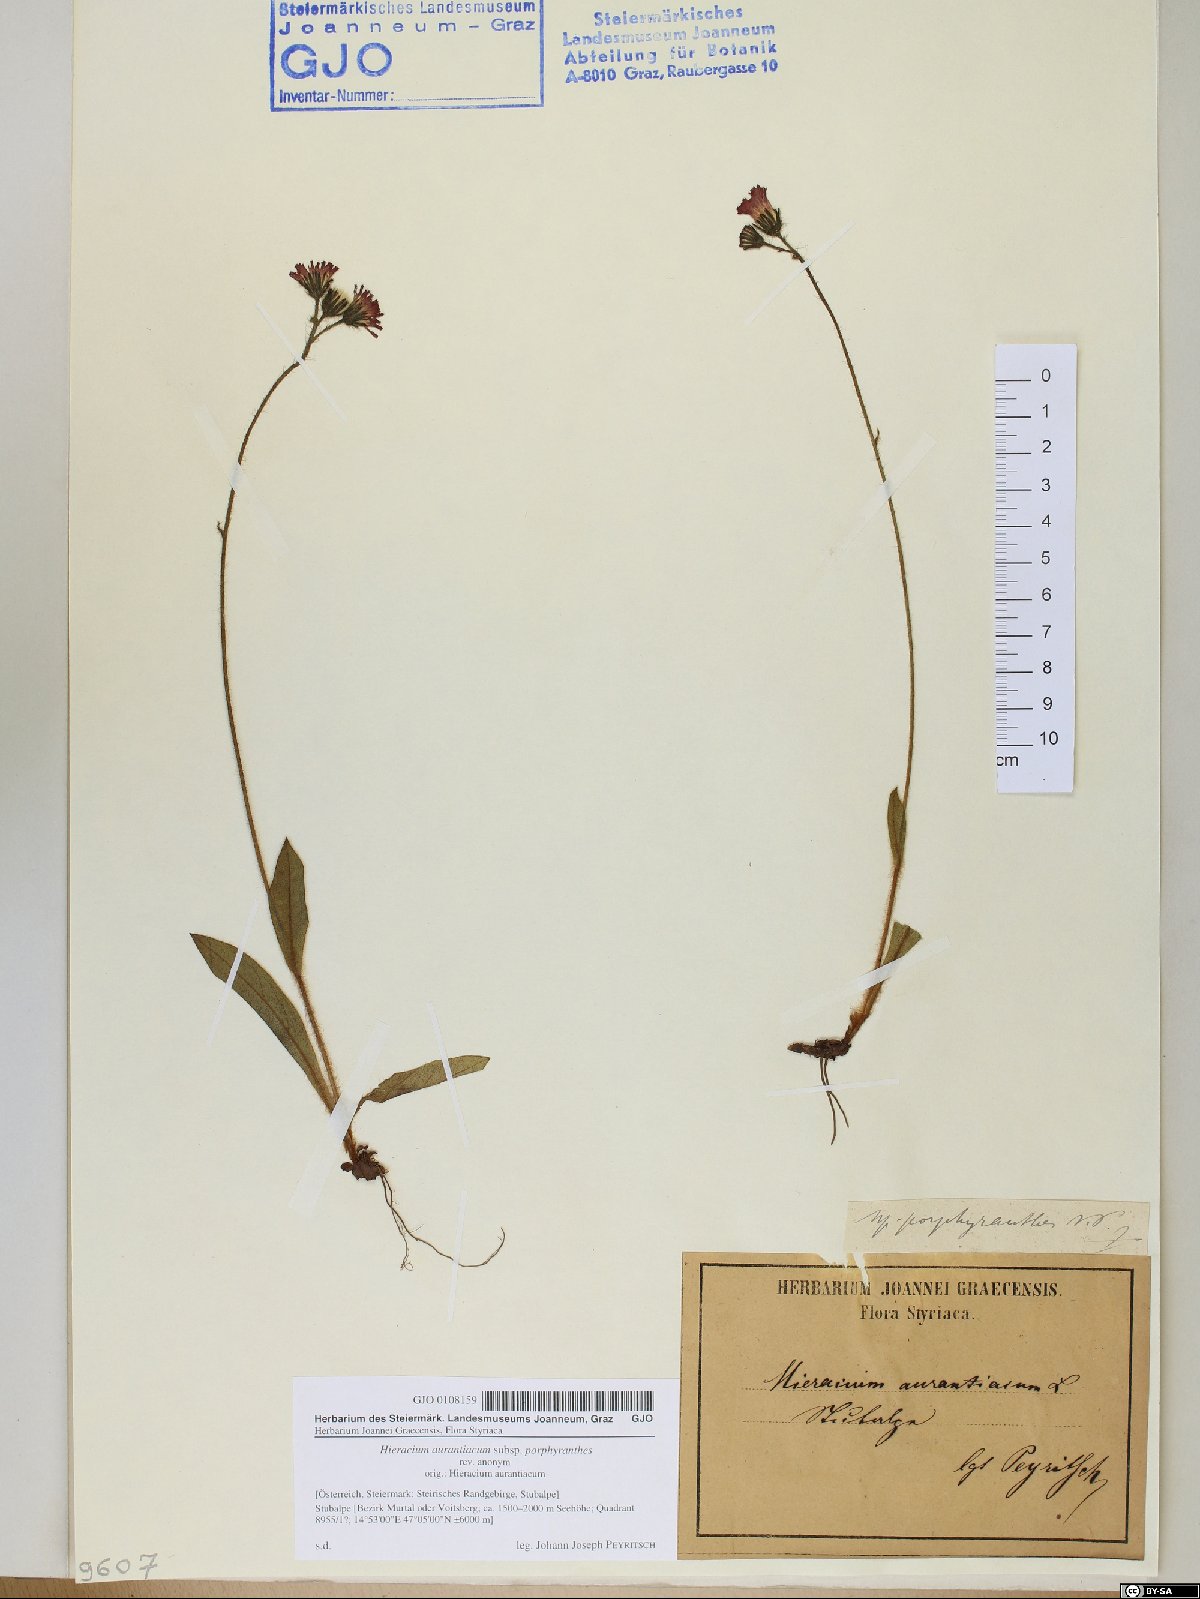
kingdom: Plantae
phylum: Tracheophyta
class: Magnoliopsida
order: Asterales
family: Asteraceae
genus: Pilosella
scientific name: Pilosella aurantiaca
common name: Fox-and-cubs
